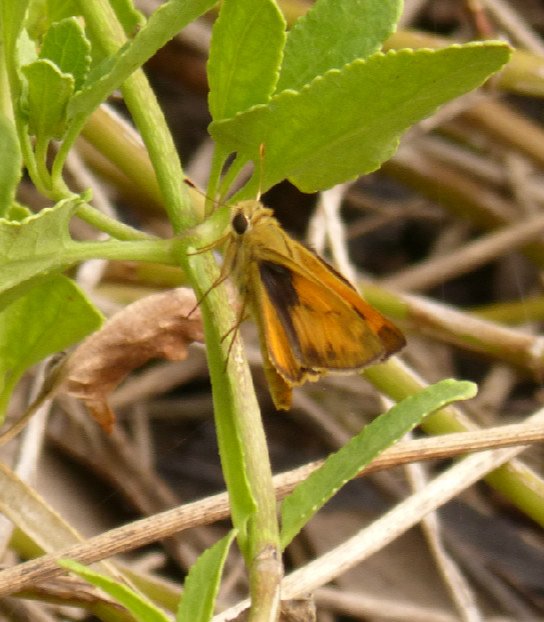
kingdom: Animalia
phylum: Arthropoda
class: Insecta
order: Lepidoptera
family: Hesperiidae
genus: Hylephila
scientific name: Hylephila phyleus
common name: Fiery Skipper
